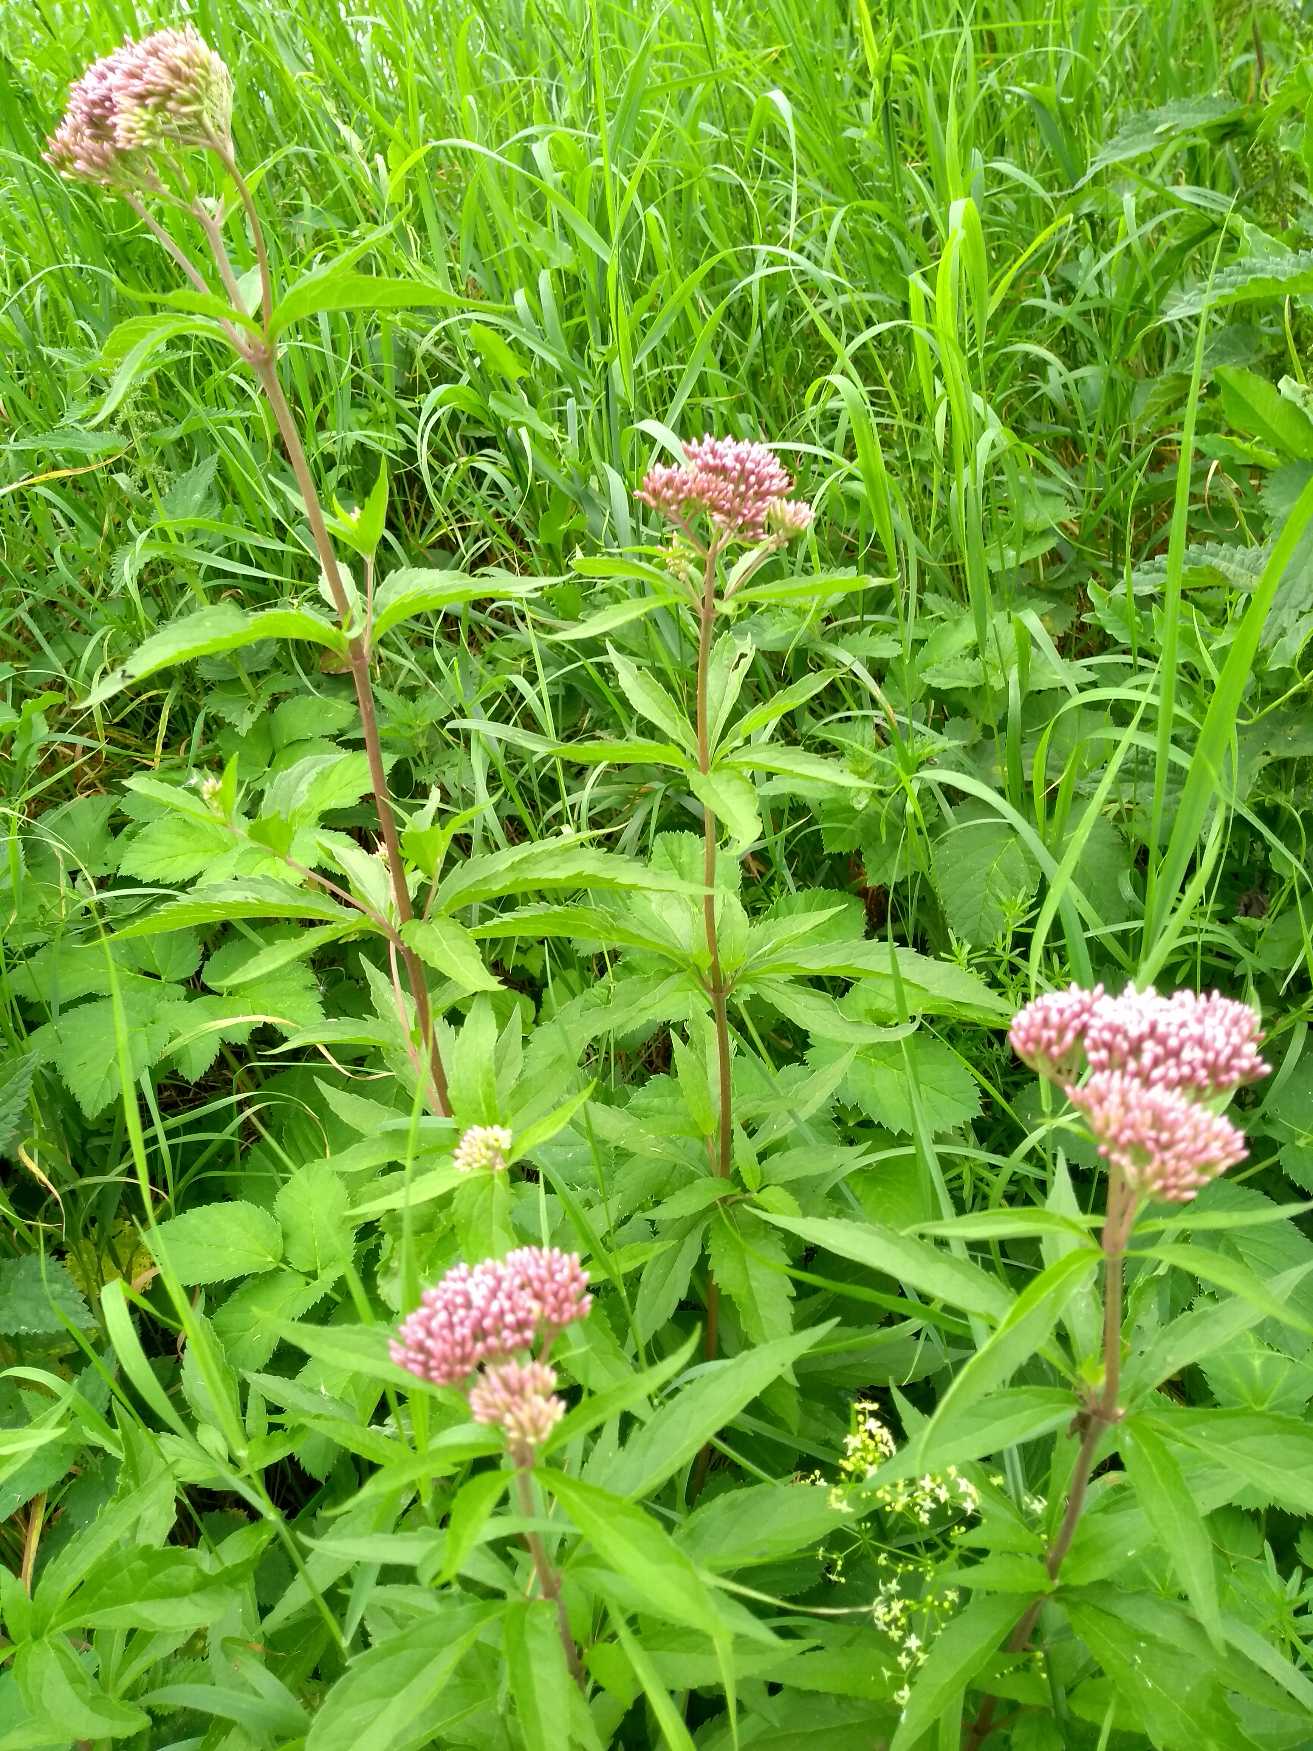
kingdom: Plantae
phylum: Tracheophyta
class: Magnoliopsida
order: Asterales
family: Asteraceae
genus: Eupatorium
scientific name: Eupatorium cannabinum
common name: Hjortetrøst
